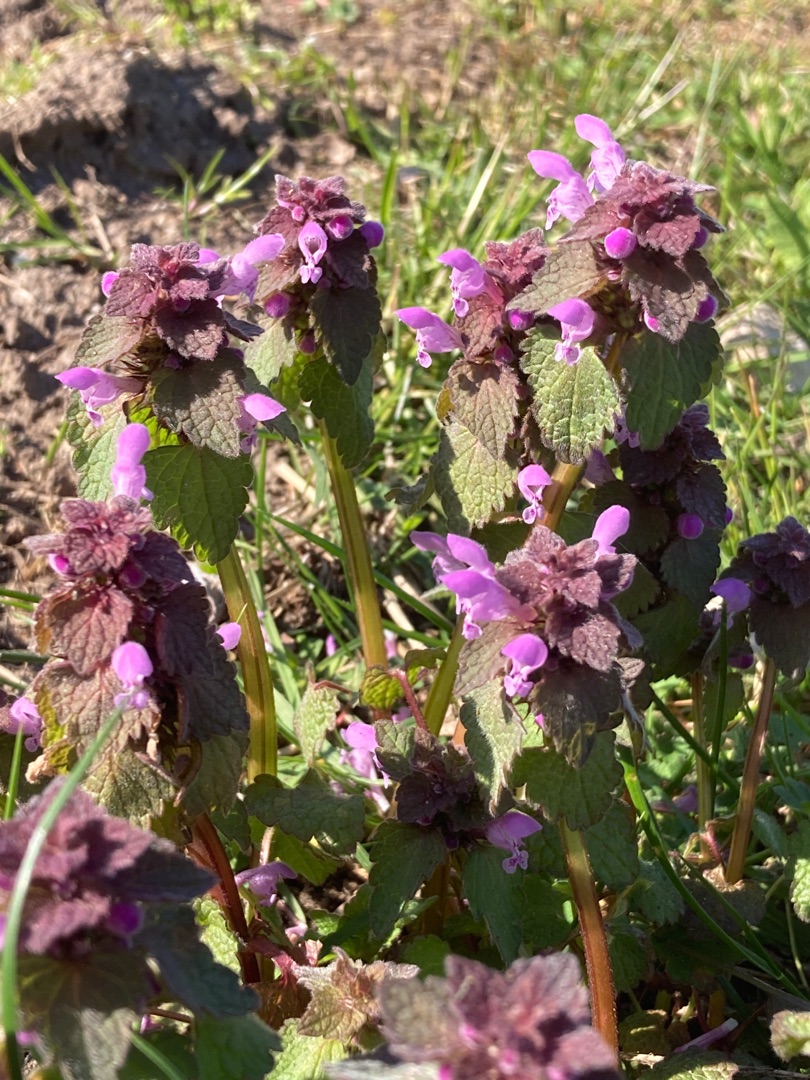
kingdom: Plantae
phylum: Tracheophyta
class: Magnoliopsida
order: Lamiales
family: Lamiaceae
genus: Lamium
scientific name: Lamium purpureum
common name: Rød tvetand
